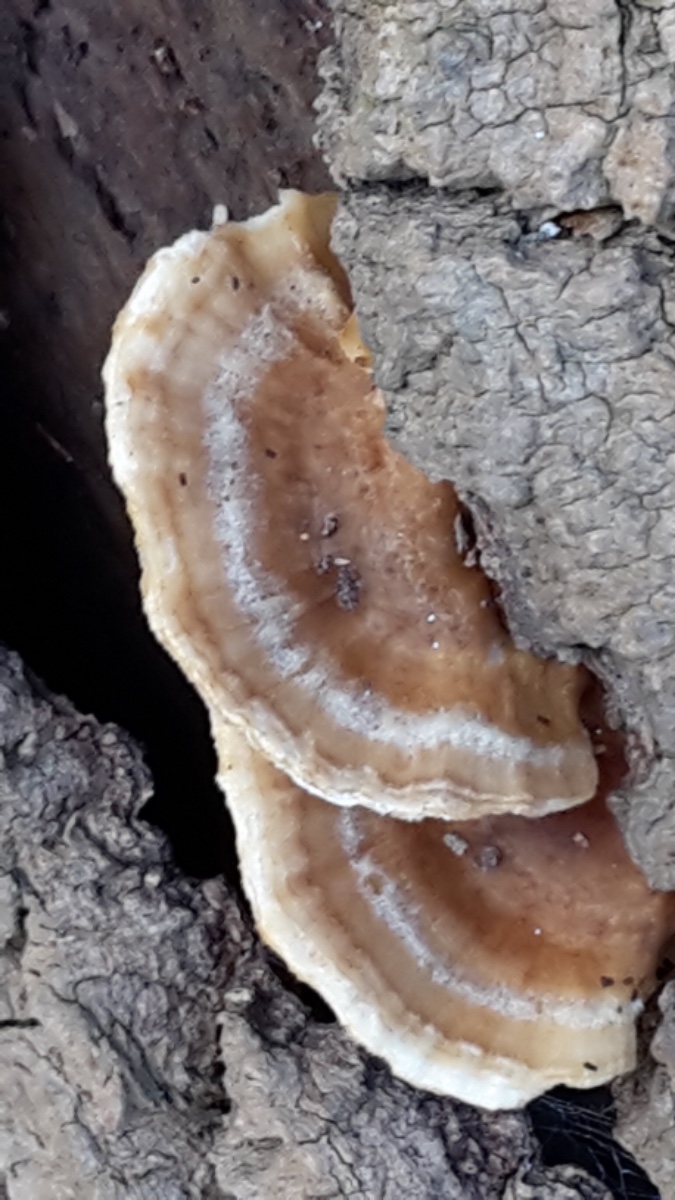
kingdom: Fungi
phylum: Basidiomycota
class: Agaricomycetes
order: Polyporales
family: Polyporaceae
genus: Trametes
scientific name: Trametes ochracea
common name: bæltet læderporesvamp
